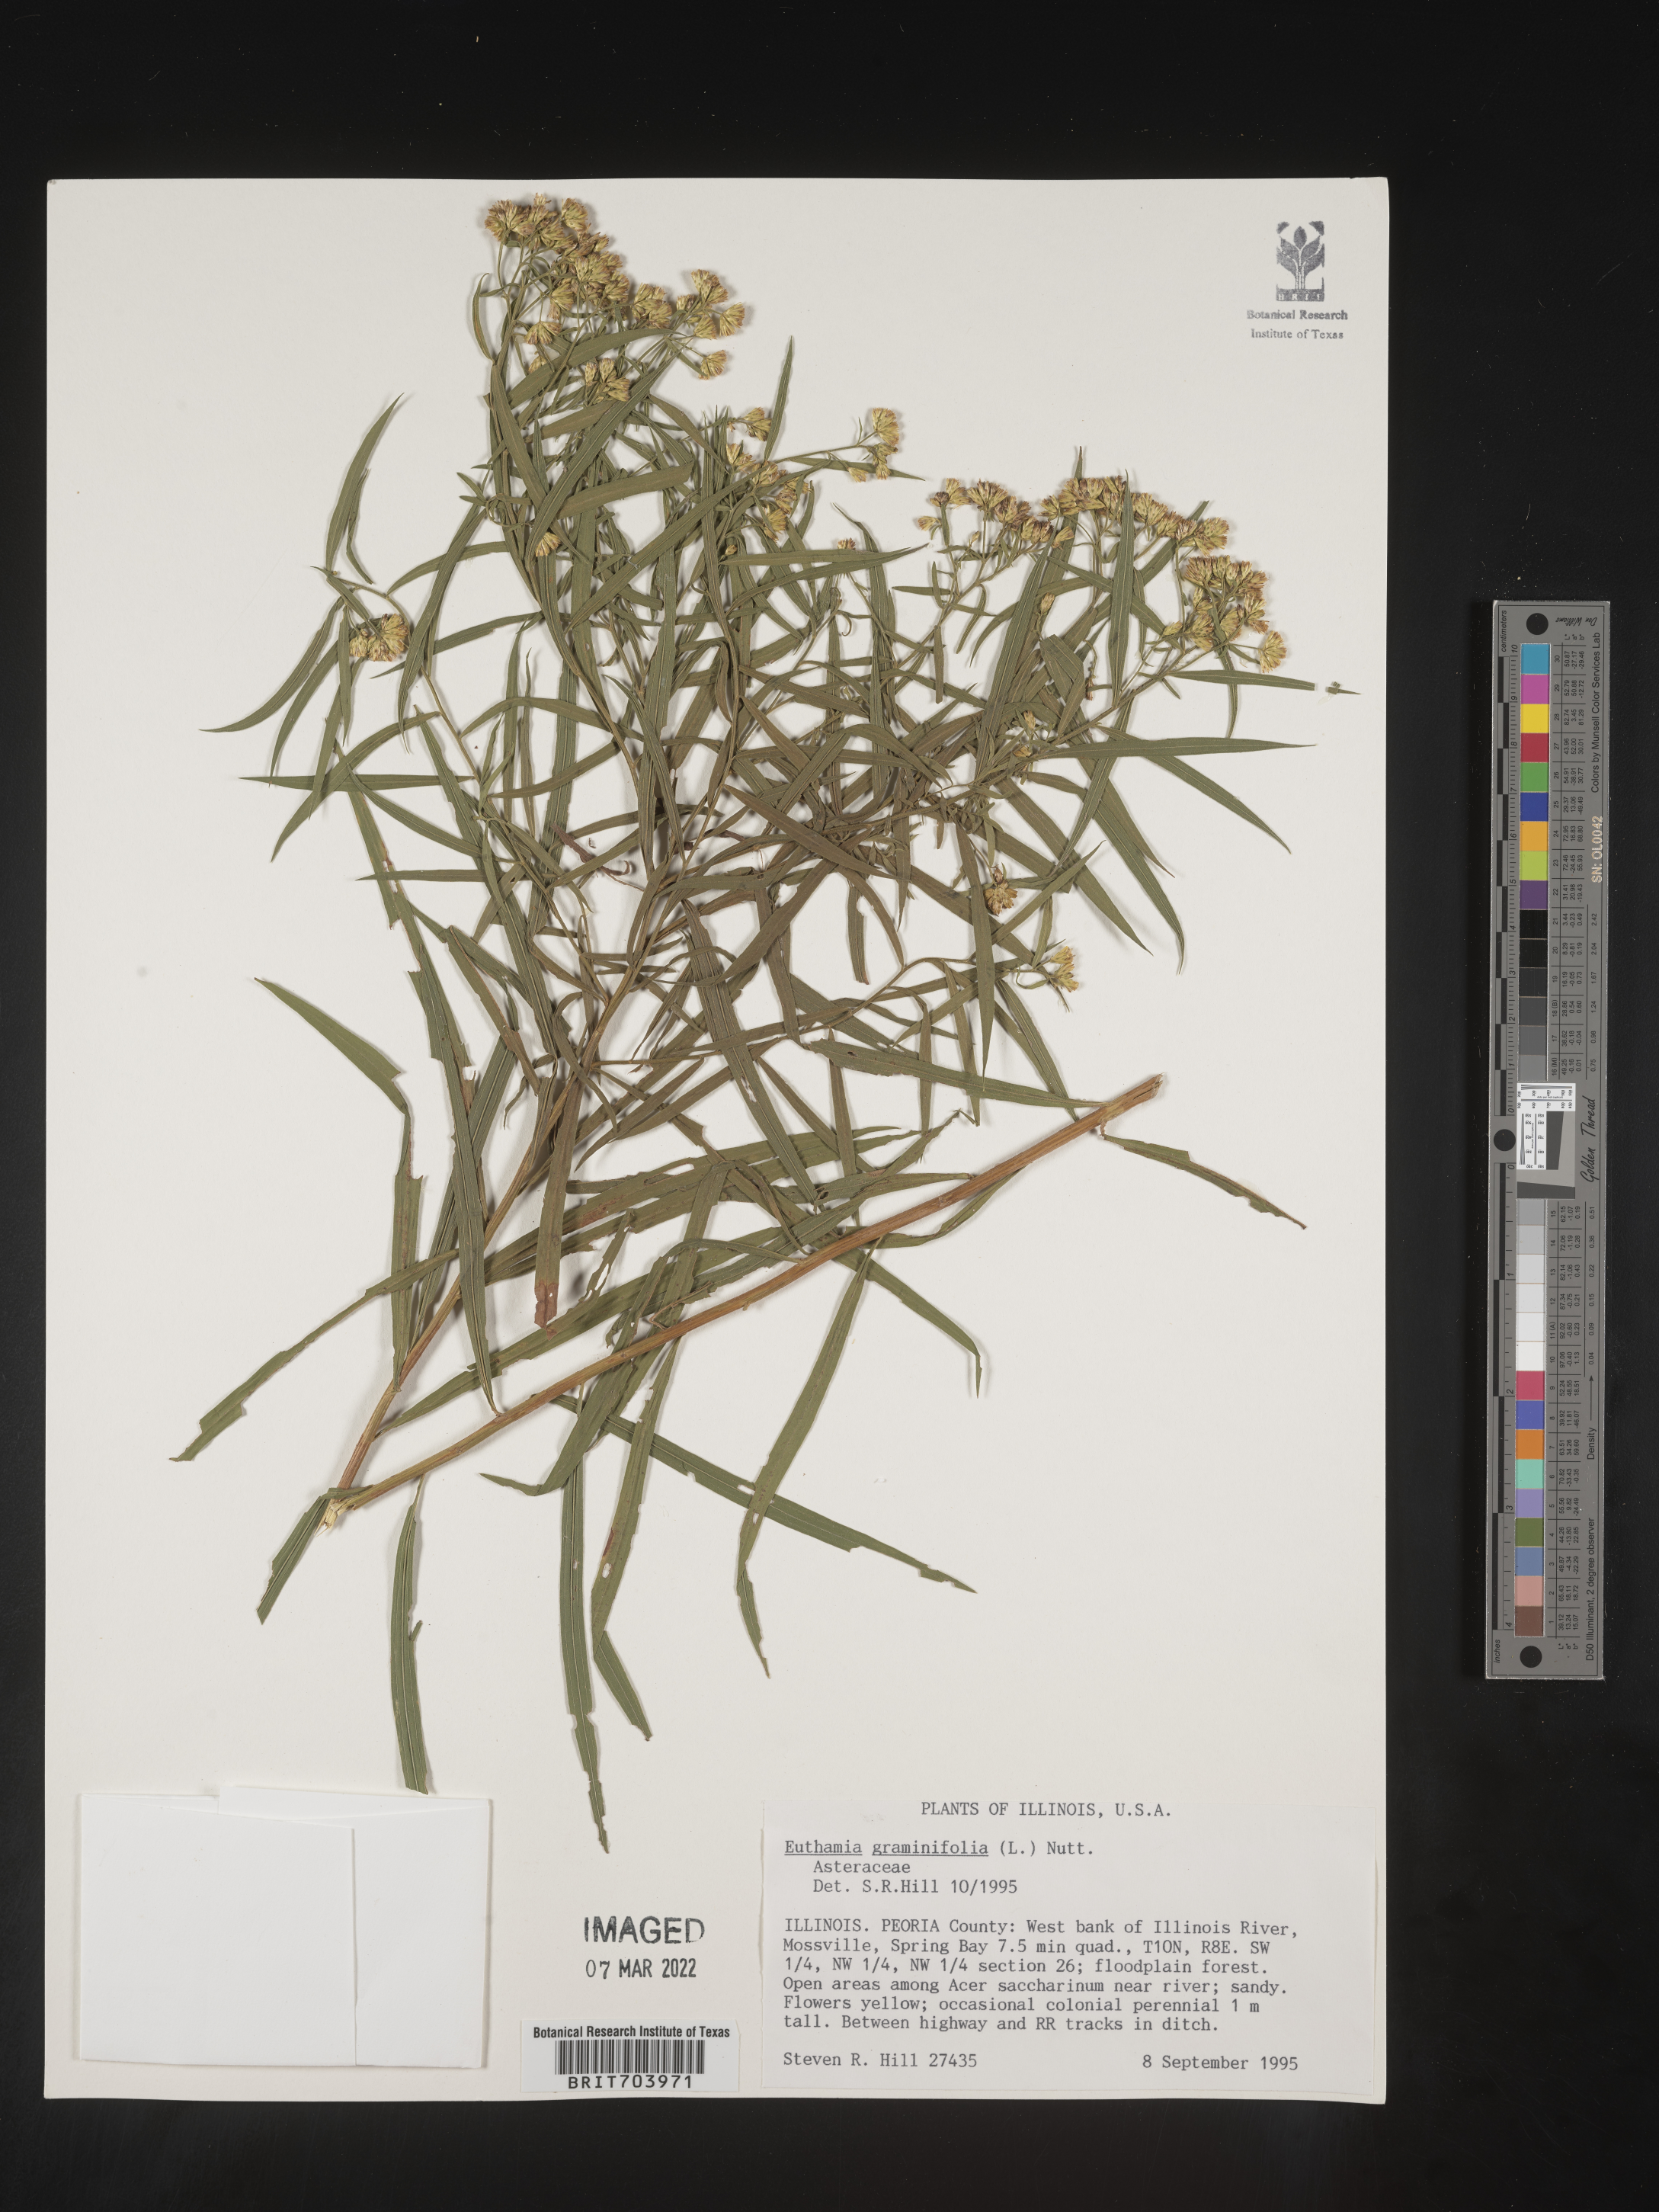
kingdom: Plantae
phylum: Tracheophyta
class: Magnoliopsida
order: Asterales
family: Asteraceae
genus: Euthamia
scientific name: Euthamia graminifolia
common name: Common goldentop
